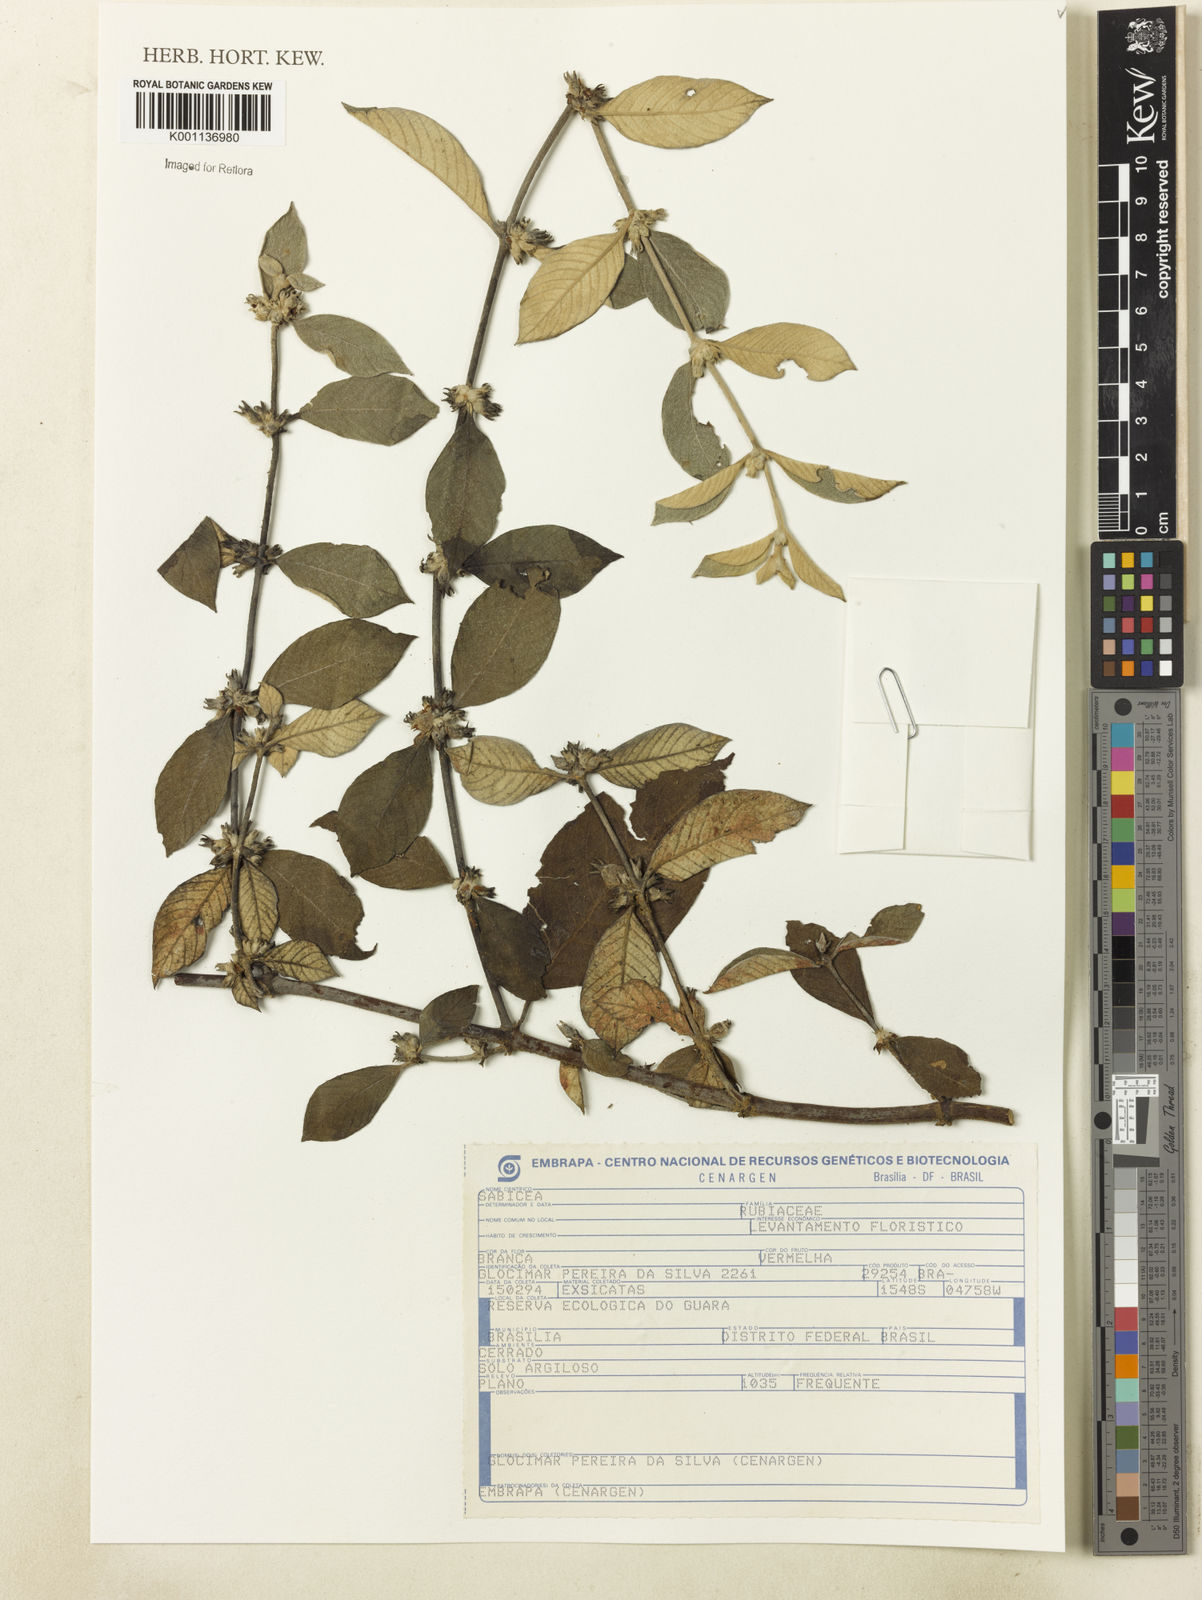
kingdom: Plantae
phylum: Tracheophyta
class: Magnoliopsida
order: Gentianales
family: Rubiaceae
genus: Sabicea
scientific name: Sabicea
